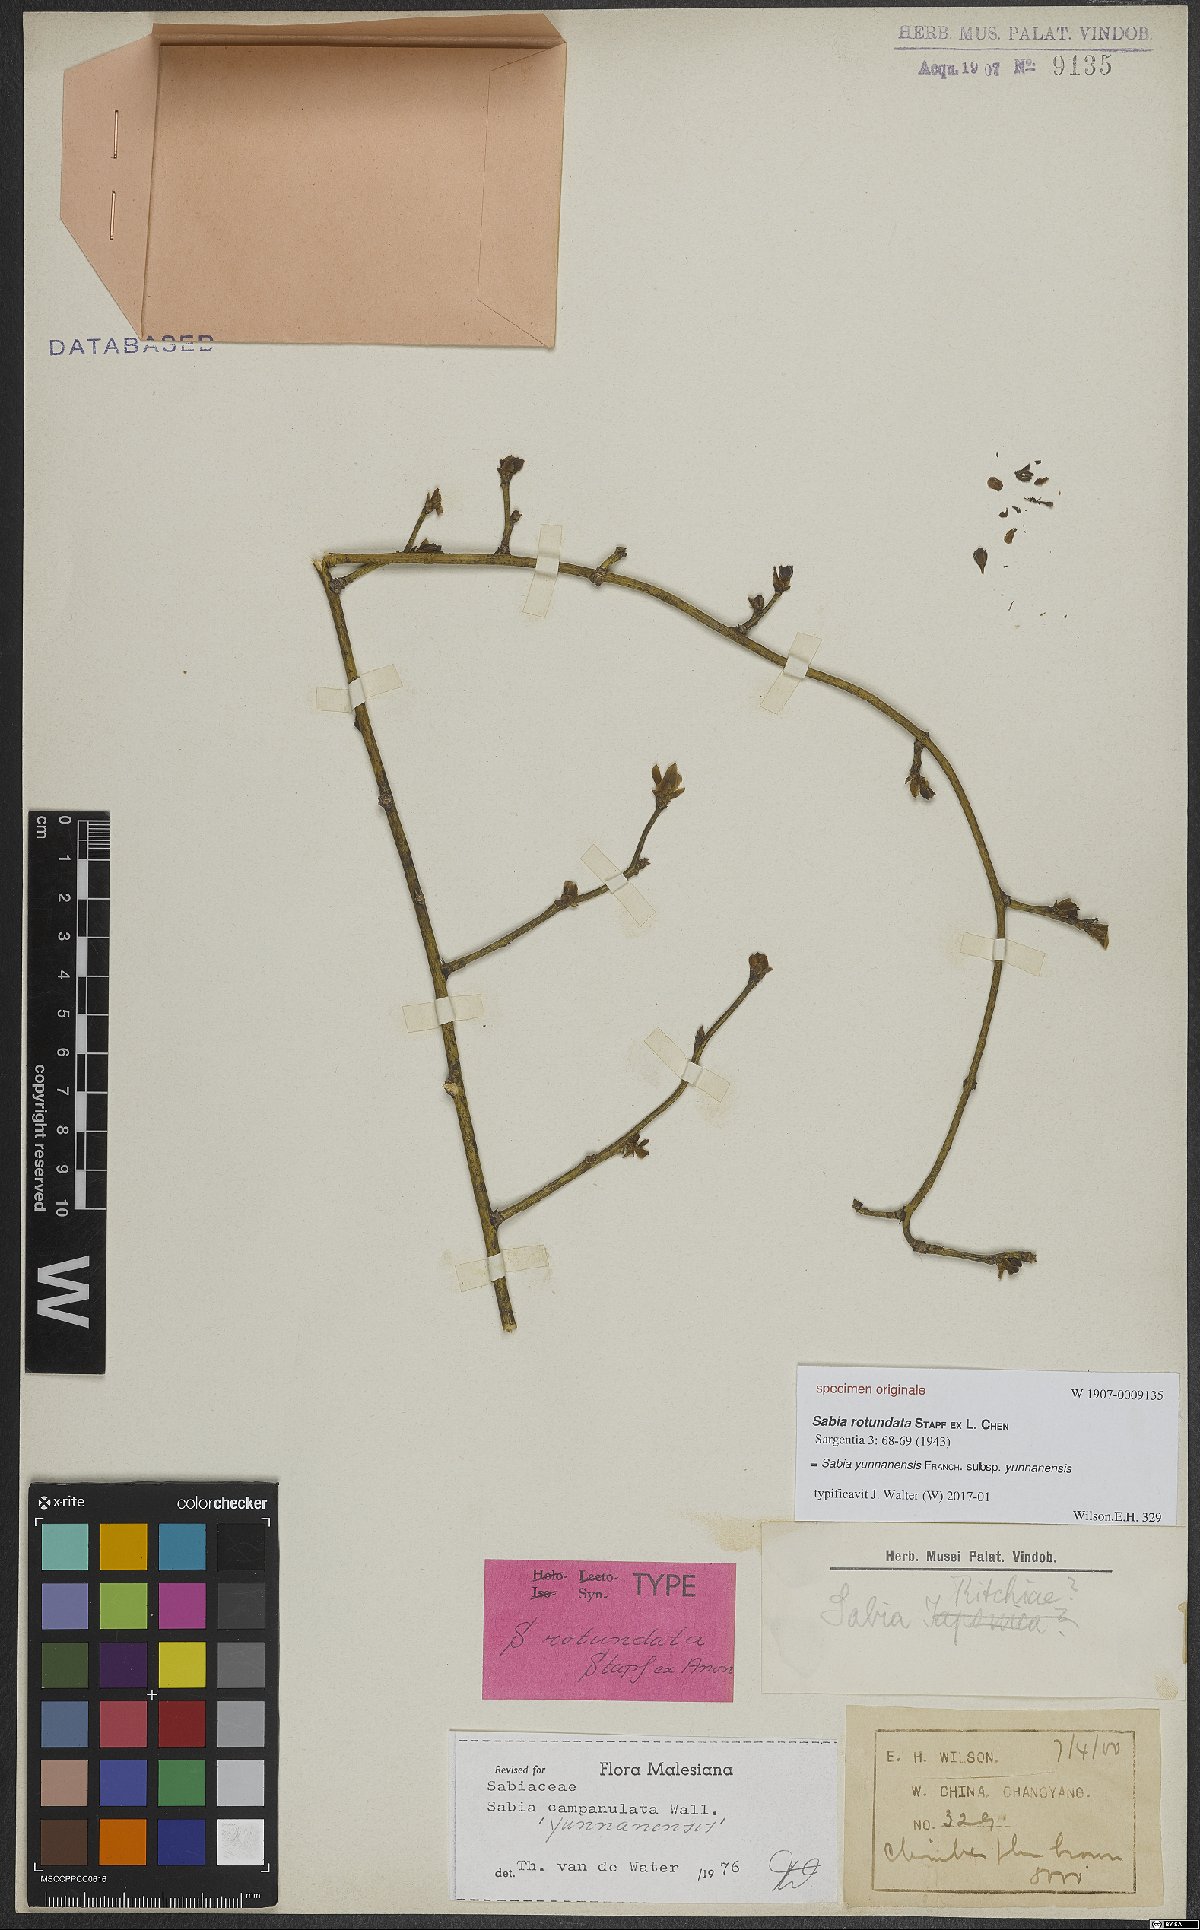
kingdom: Plantae
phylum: Tracheophyta
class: Magnoliopsida
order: Proteales
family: Sabiaceae
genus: Sabia
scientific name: Sabia yunnanensis
